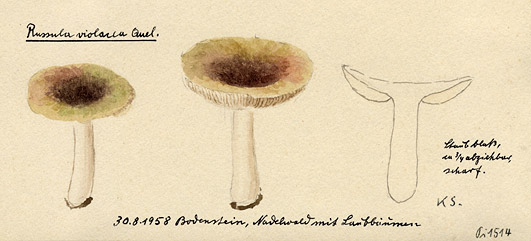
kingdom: Fungi
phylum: Basidiomycota
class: Agaricomycetes
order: Russulales
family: Russulaceae
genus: Russula
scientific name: Russula violacea
